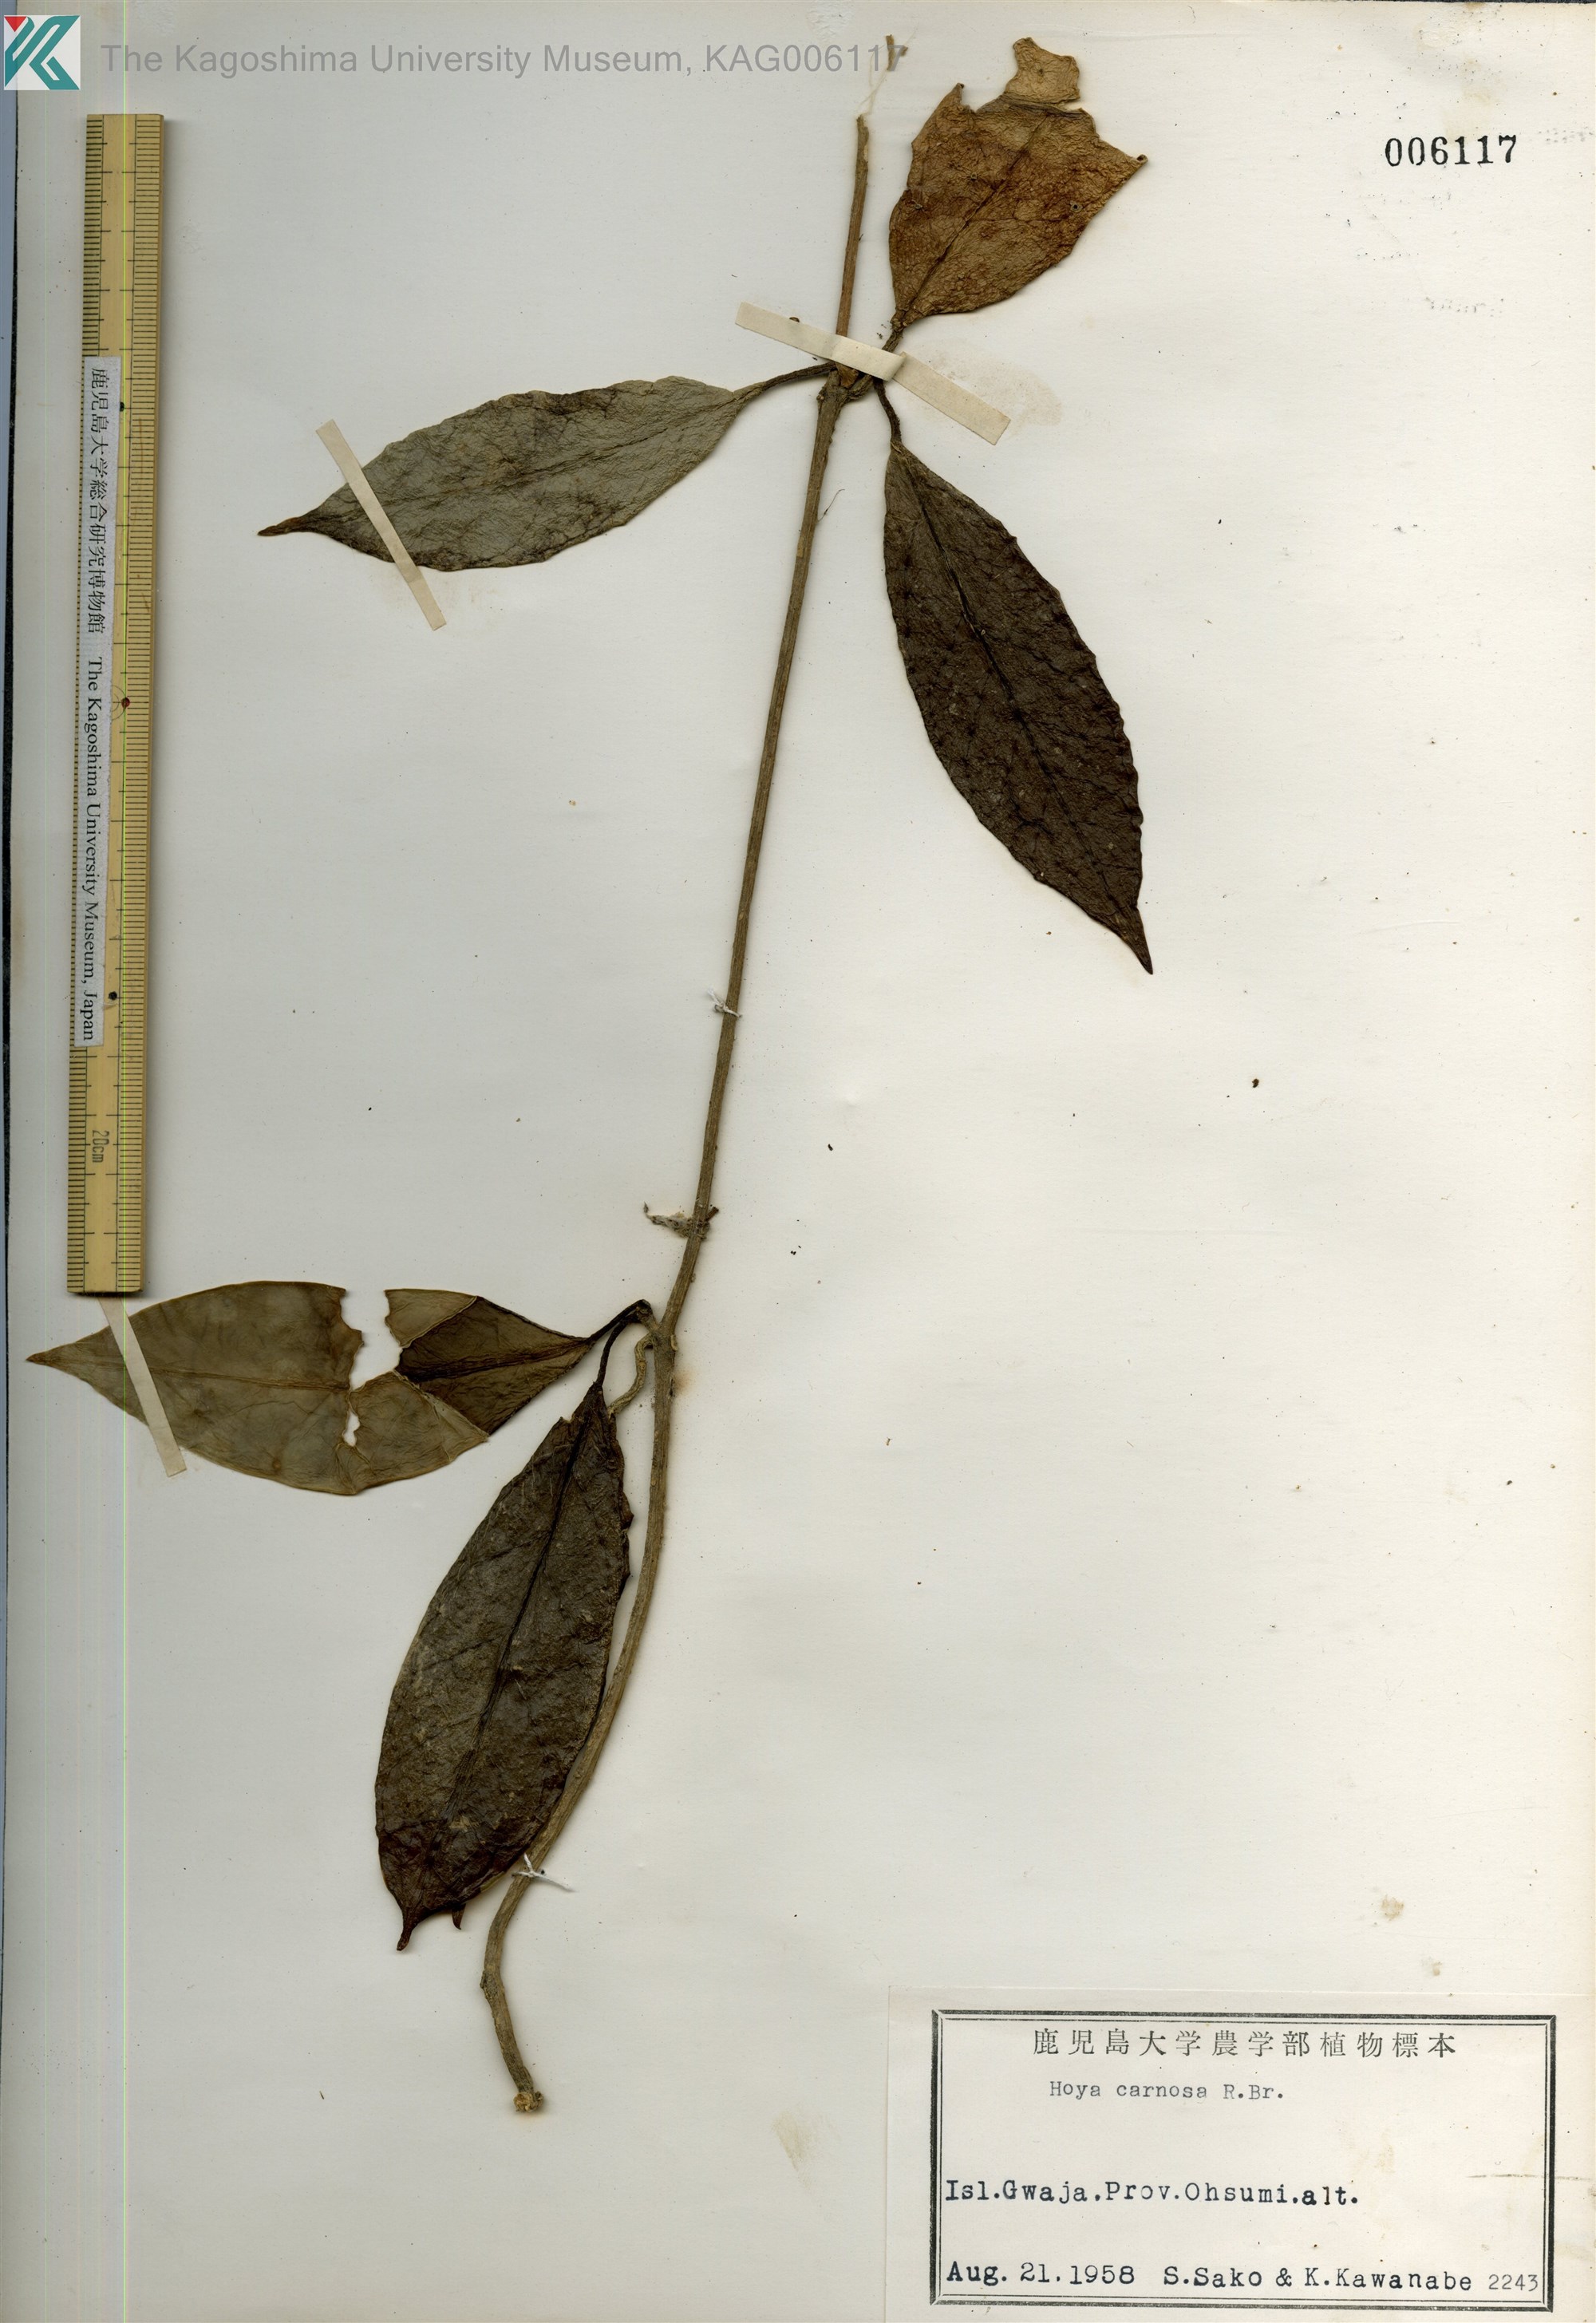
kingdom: Plantae
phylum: Tracheophyta
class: Magnoliopsida
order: Gentianales
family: Apocynaceae
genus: Hoya
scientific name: Hoya carnosa
